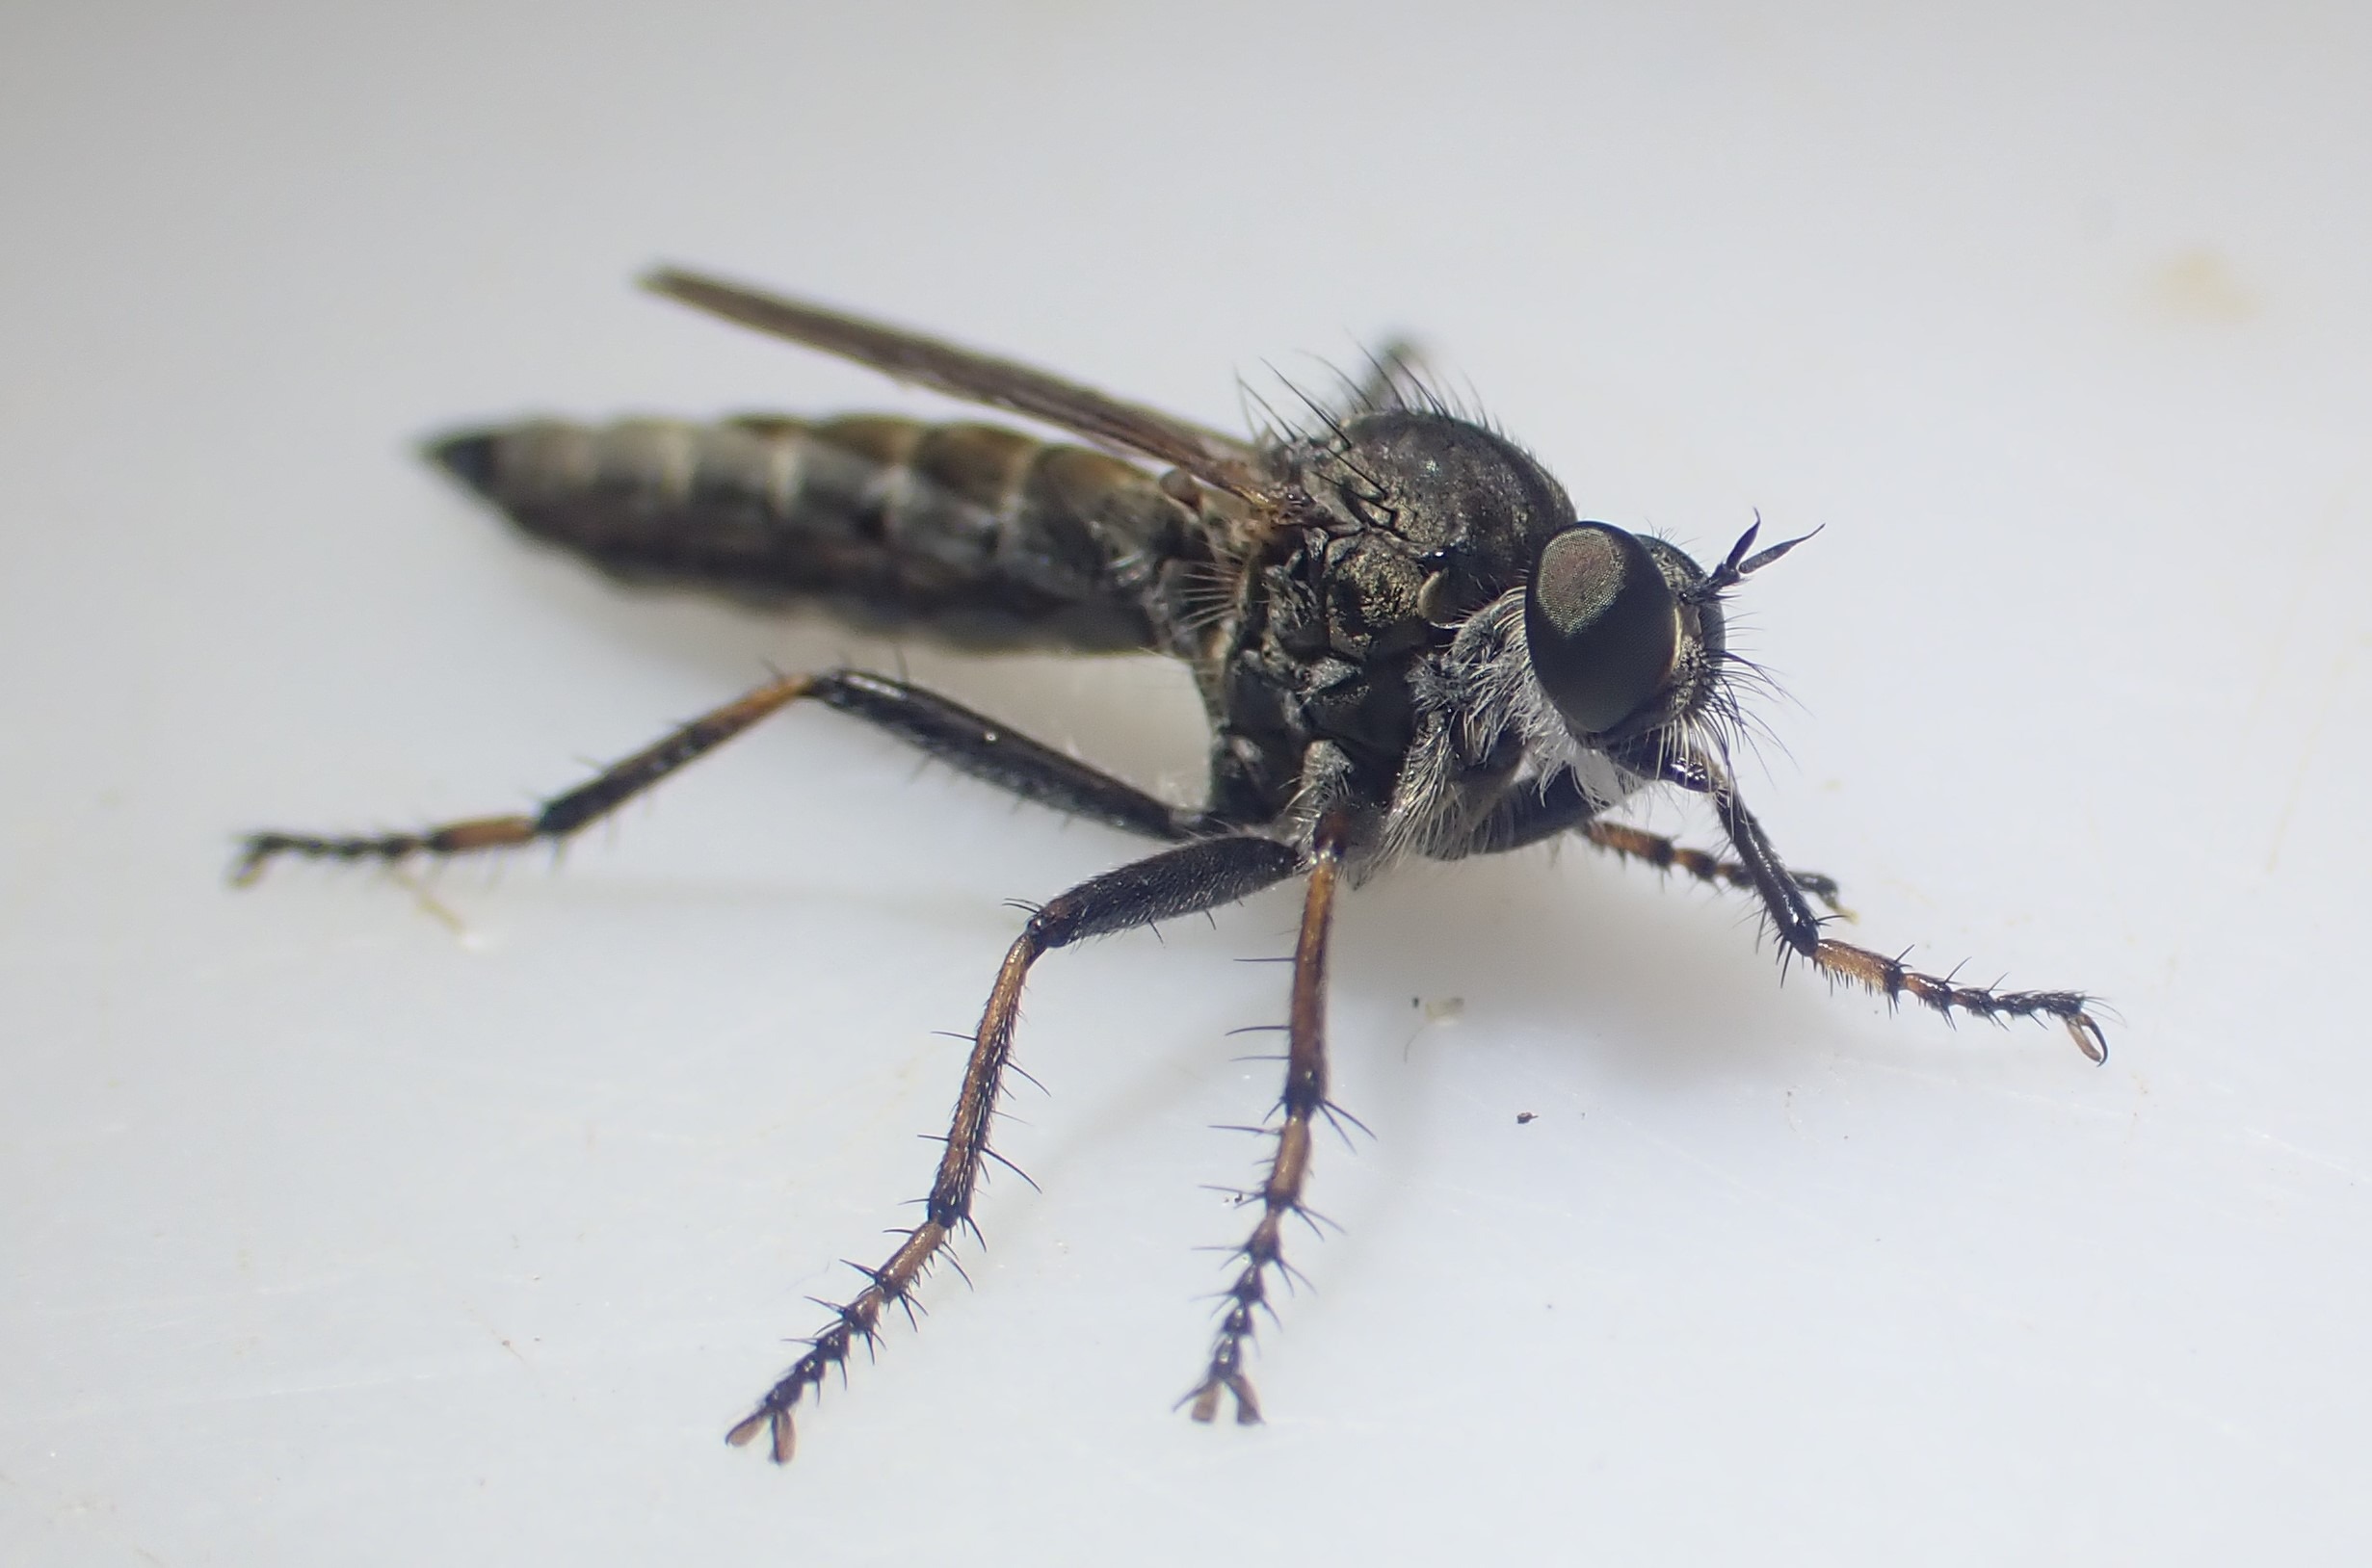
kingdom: Animalia
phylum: Arthropoda
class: Insecta
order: Diptera
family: Asilidae
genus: Machimus
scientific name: Machimus atricapillus
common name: Sort hårrovflue
